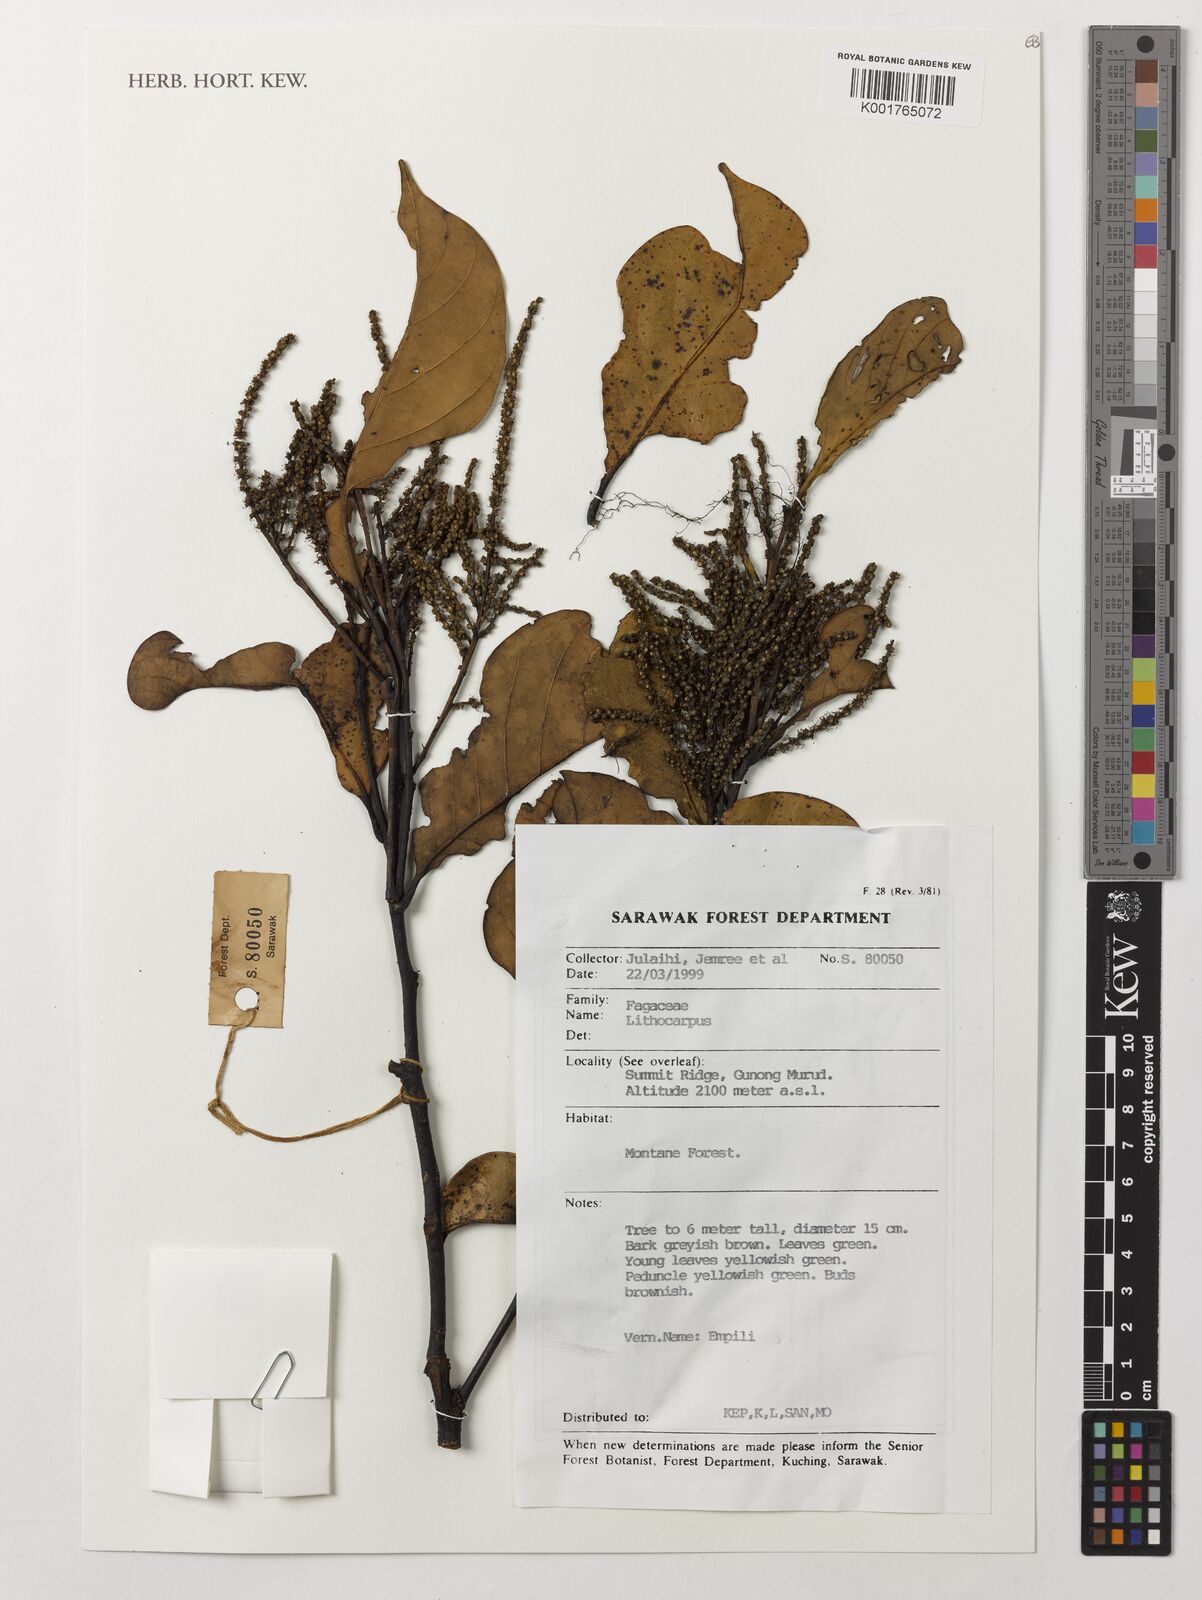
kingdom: Plantae
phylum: Tracheophyta
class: Magnoliopsida
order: Fagales
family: Fagaceae
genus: Lithocarpus
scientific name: Lithocarpus
